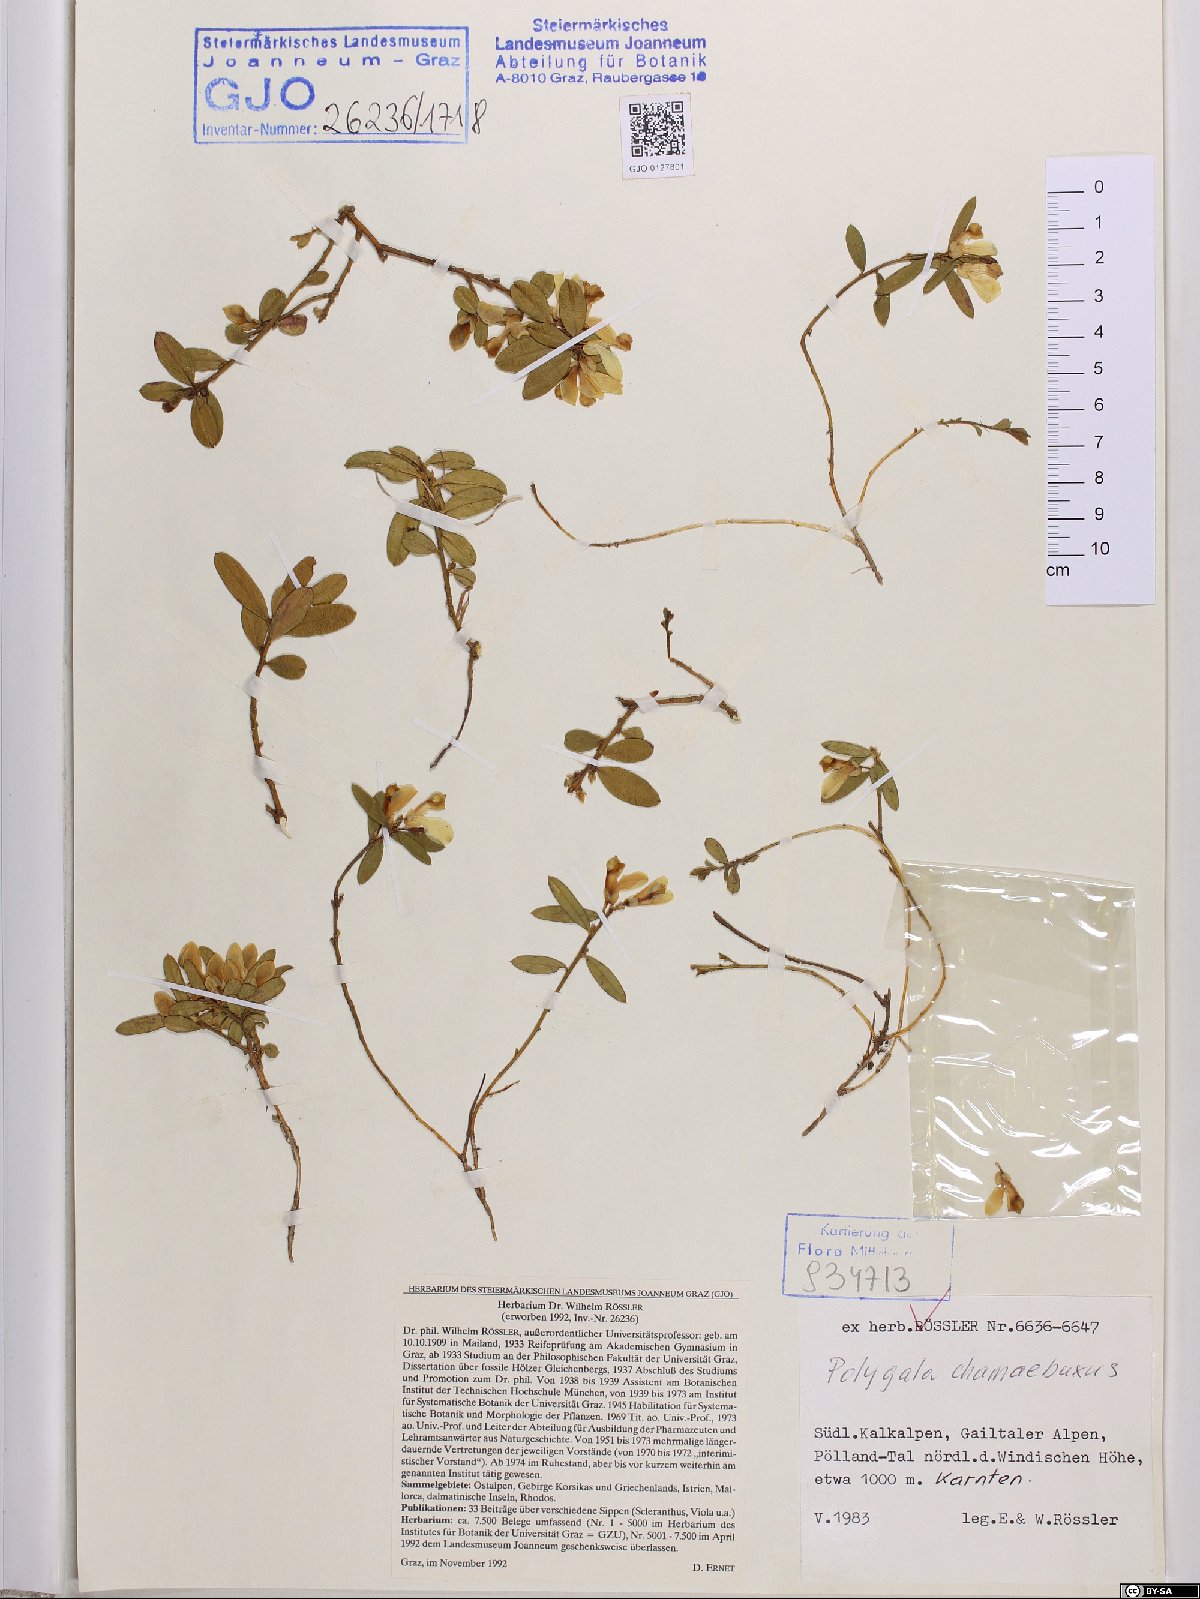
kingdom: Plantae
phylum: Tracheophyta
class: Magnoliopsida
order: Fabales
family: Polygalaceae
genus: Polygaloides
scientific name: Polygaloides chamaebuxus
